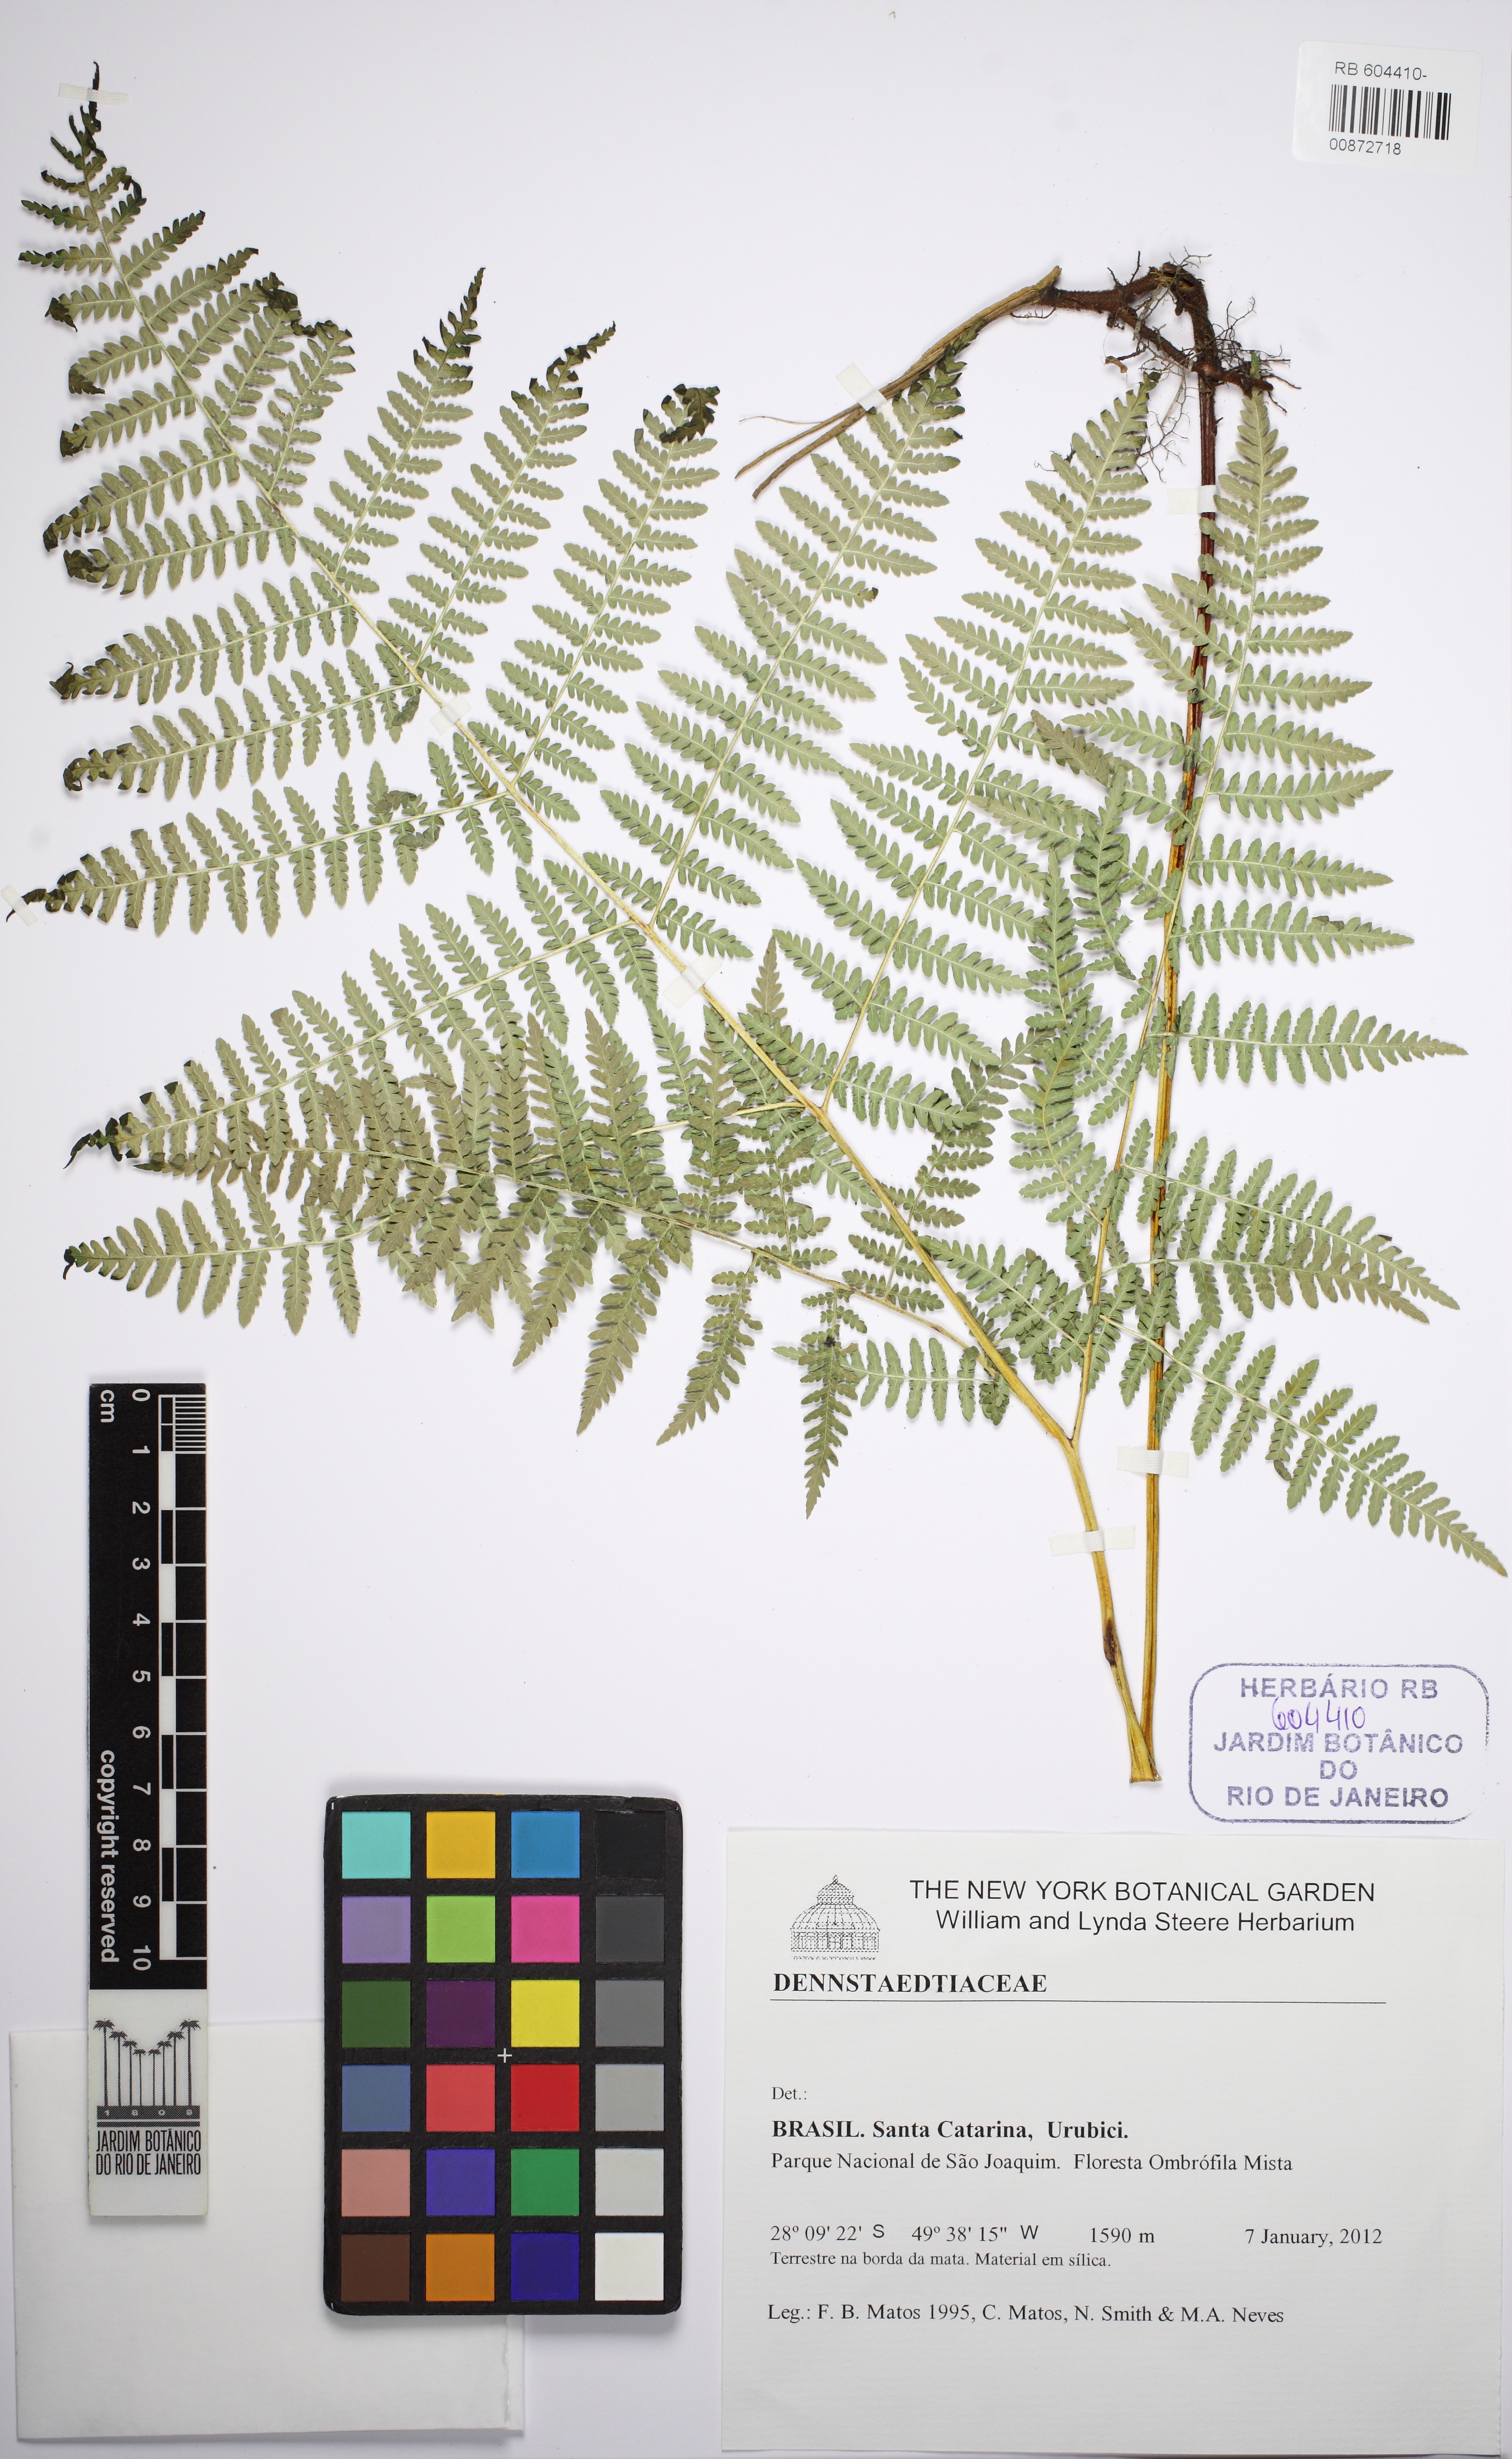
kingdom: Plantae
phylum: Tracheophyta
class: Polypodiopsida
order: Polypodiales
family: Dennstaedtiaceae
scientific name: Dennstaedtiaceae
